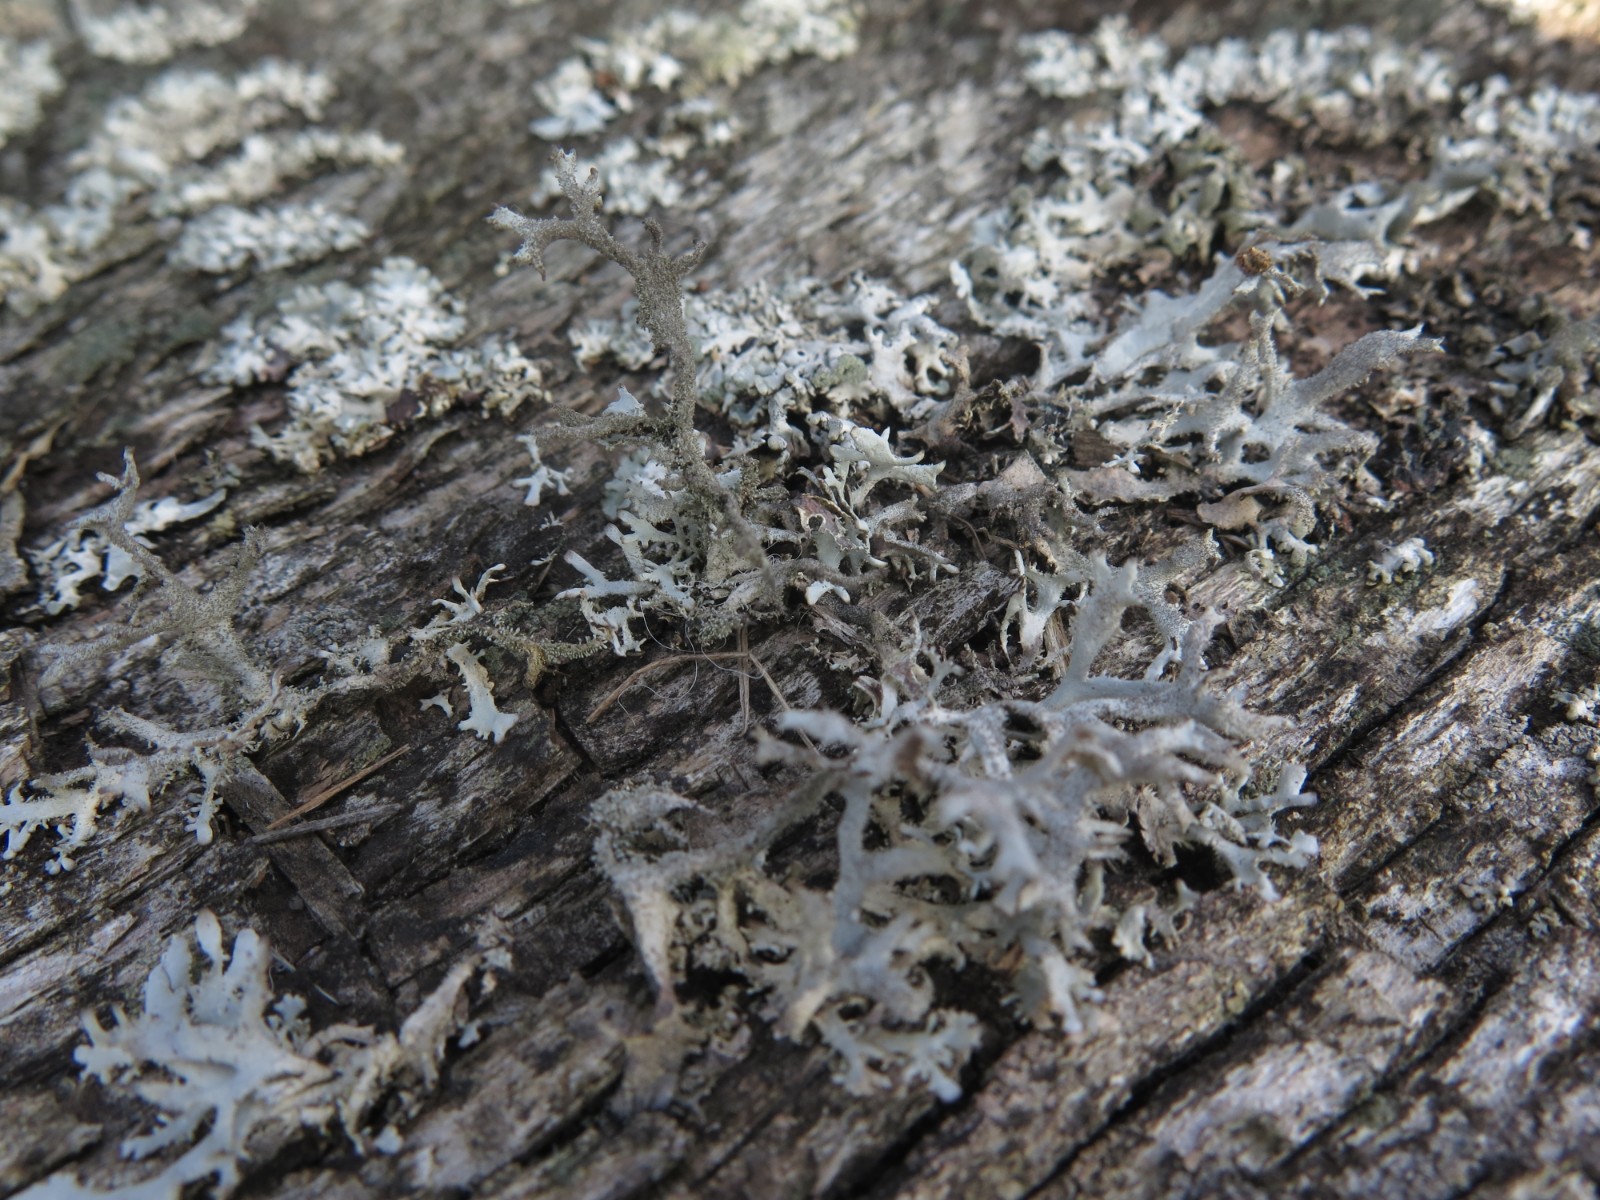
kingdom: Fungi
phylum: Ascomycota
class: Lecanoromycetes
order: Lecanorales
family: Parmeliaceae
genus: Pseudevernia
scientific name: Pseudevernia furfuracea
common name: grå fyrrelav
